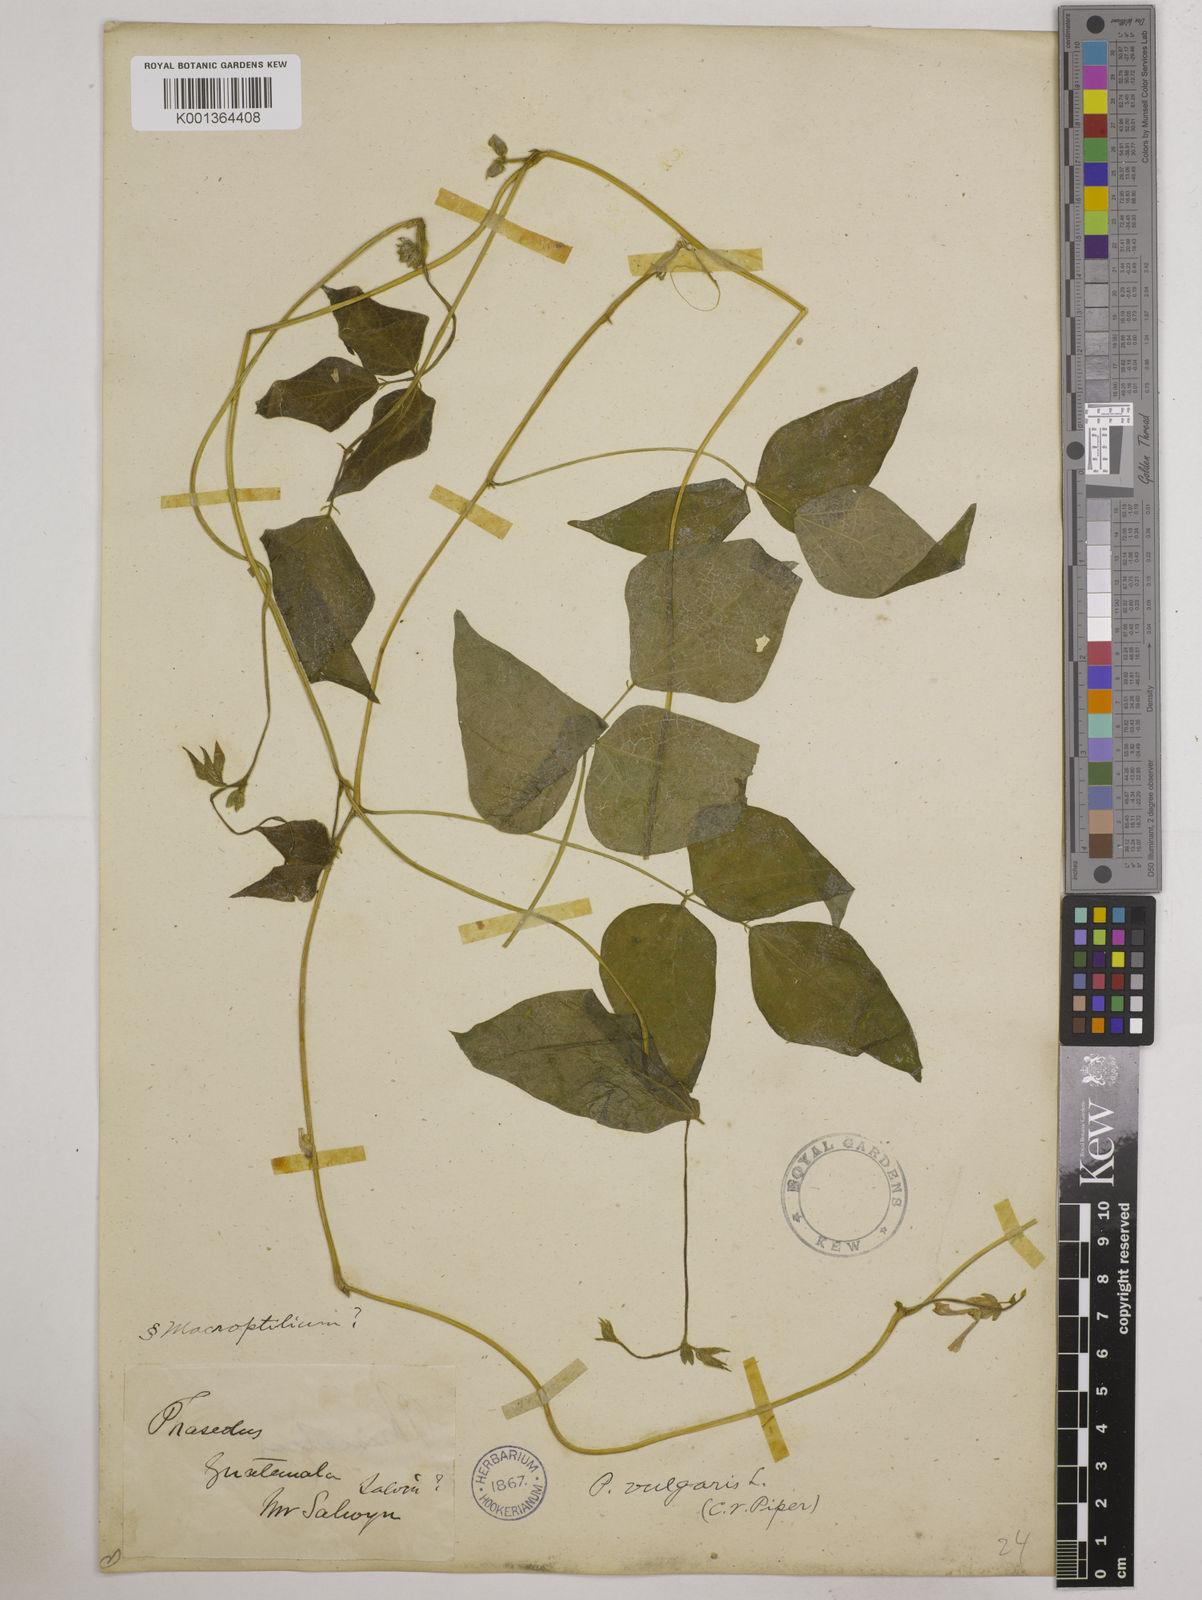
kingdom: Plantae
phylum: Tracheophyta
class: Magnoliopsida
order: Fabales
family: Fabaceae
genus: Phaseolus
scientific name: Phaseolus vulgaris
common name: Bean
